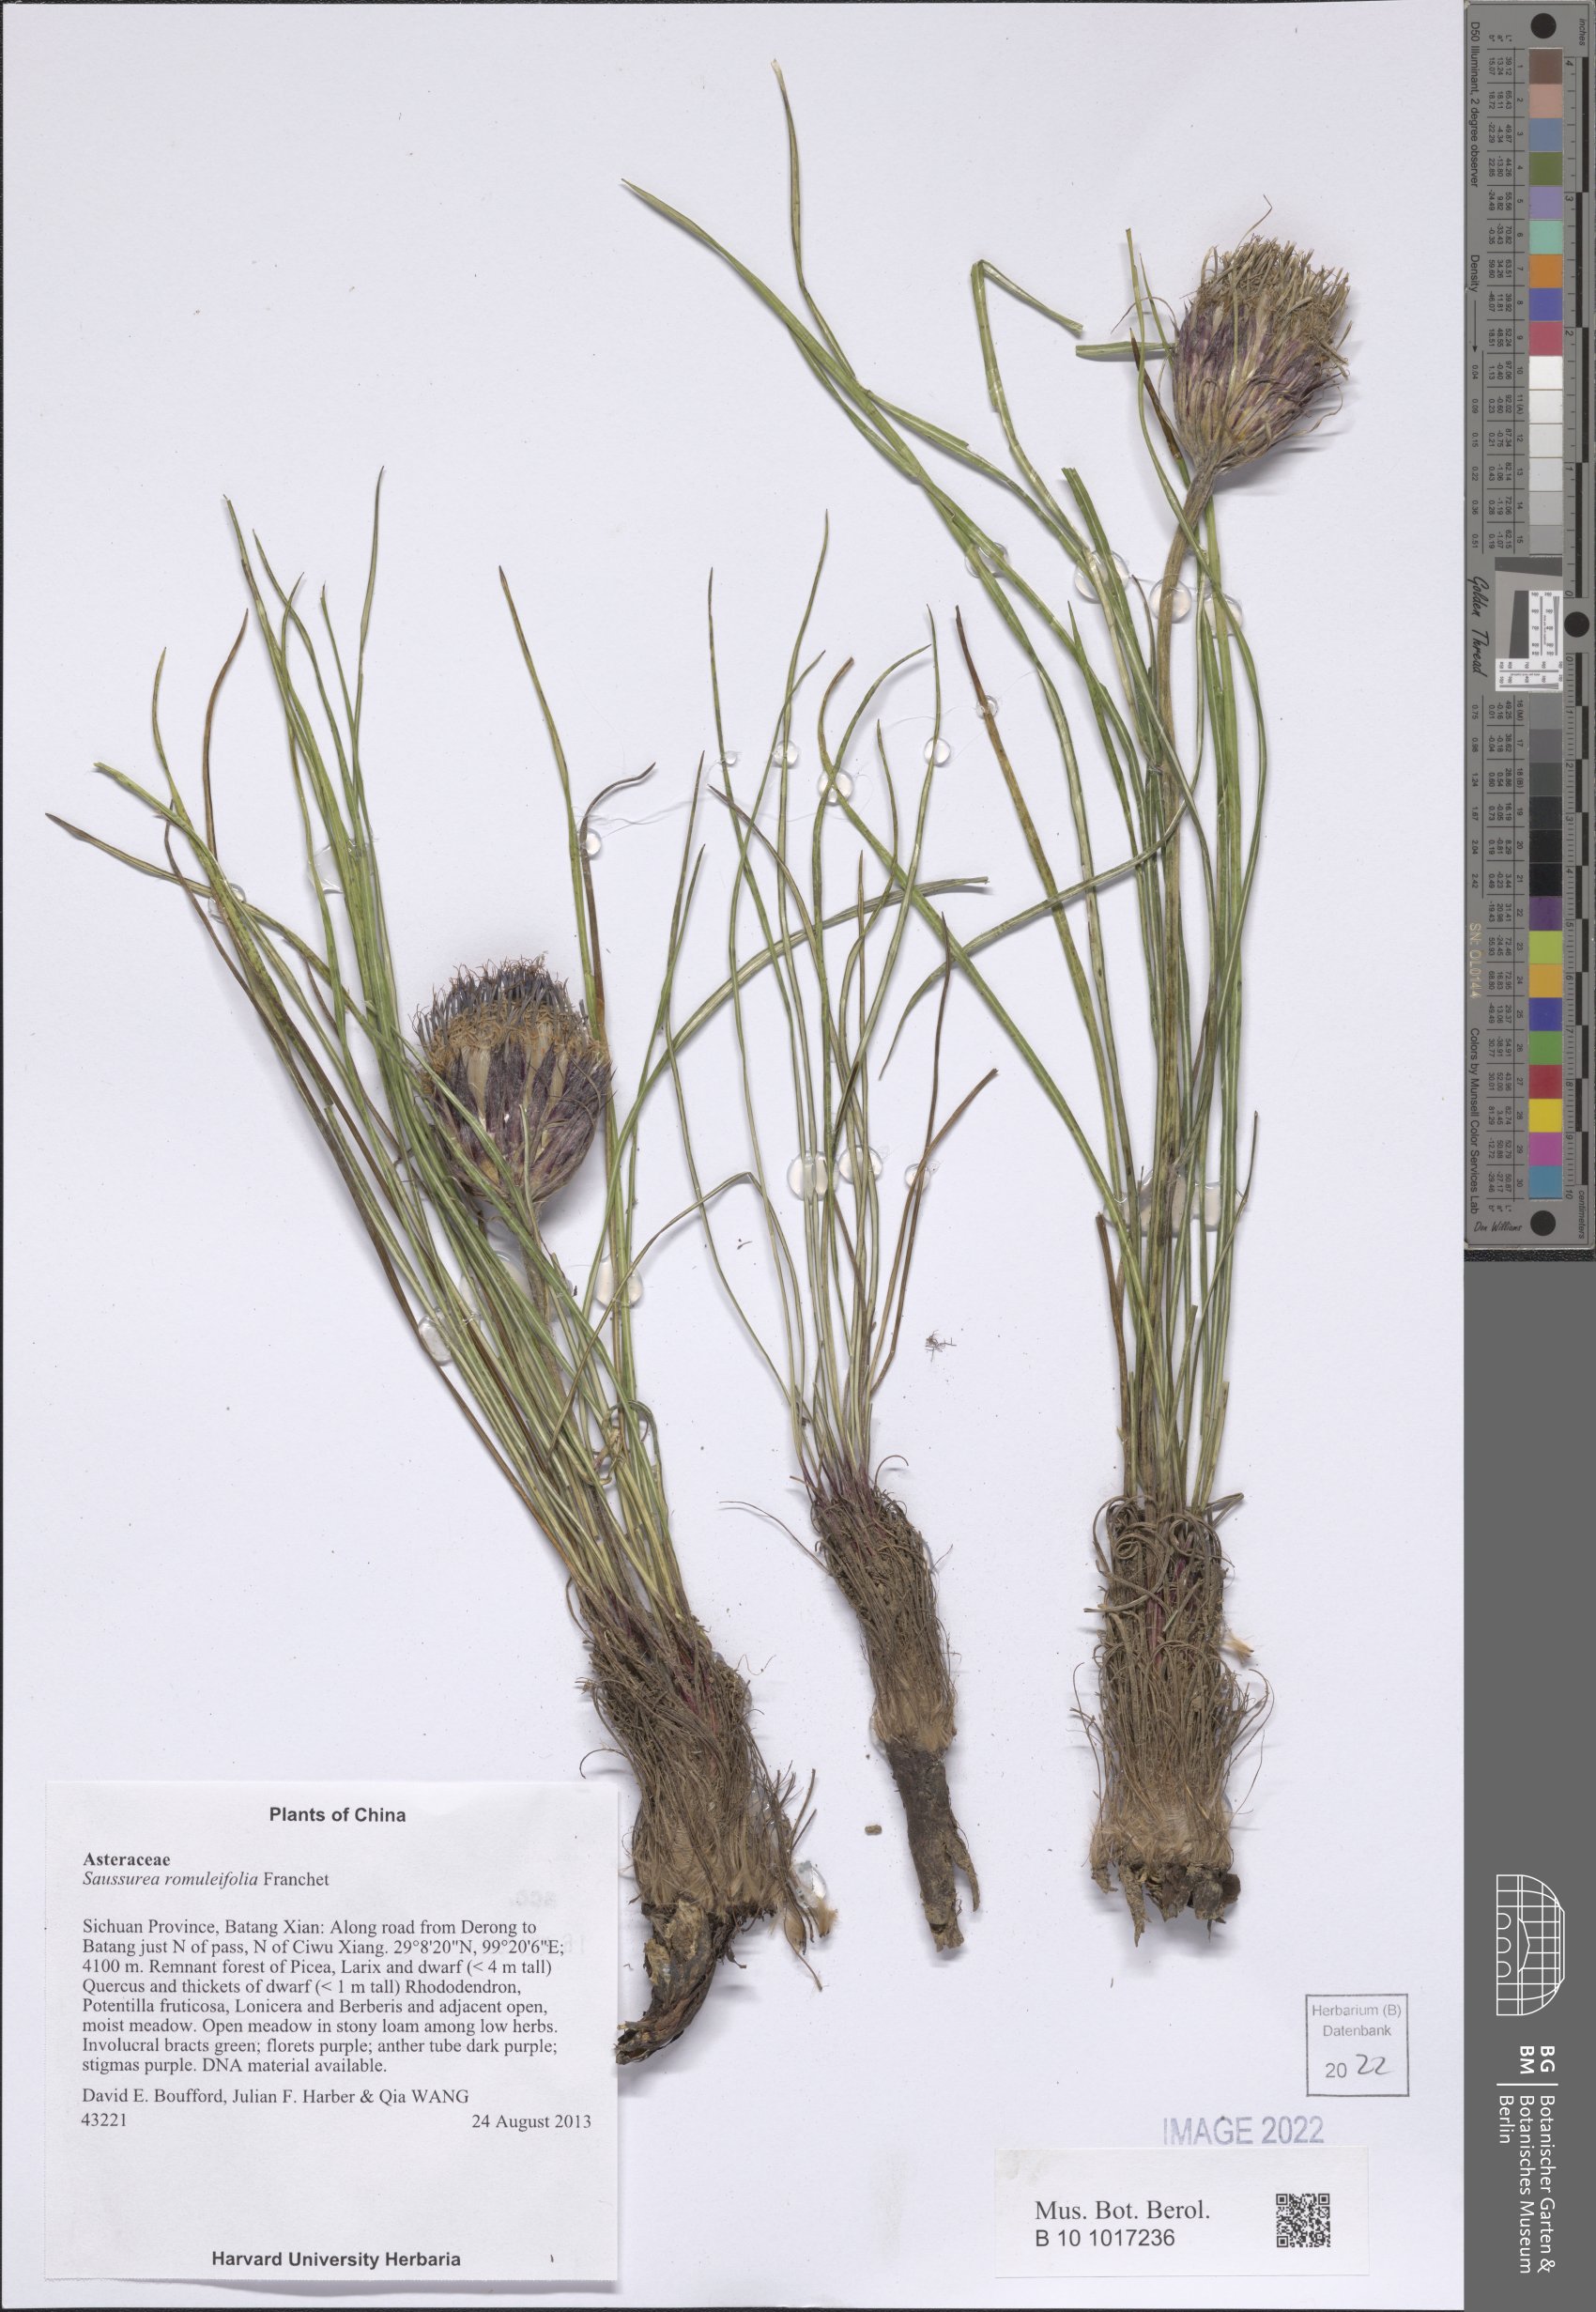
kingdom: Plantae
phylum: Tracheophyta
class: Magnoliopsida
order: Asterales
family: Asteraceae
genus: Saussurea
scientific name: Saussurea romuleifolia
